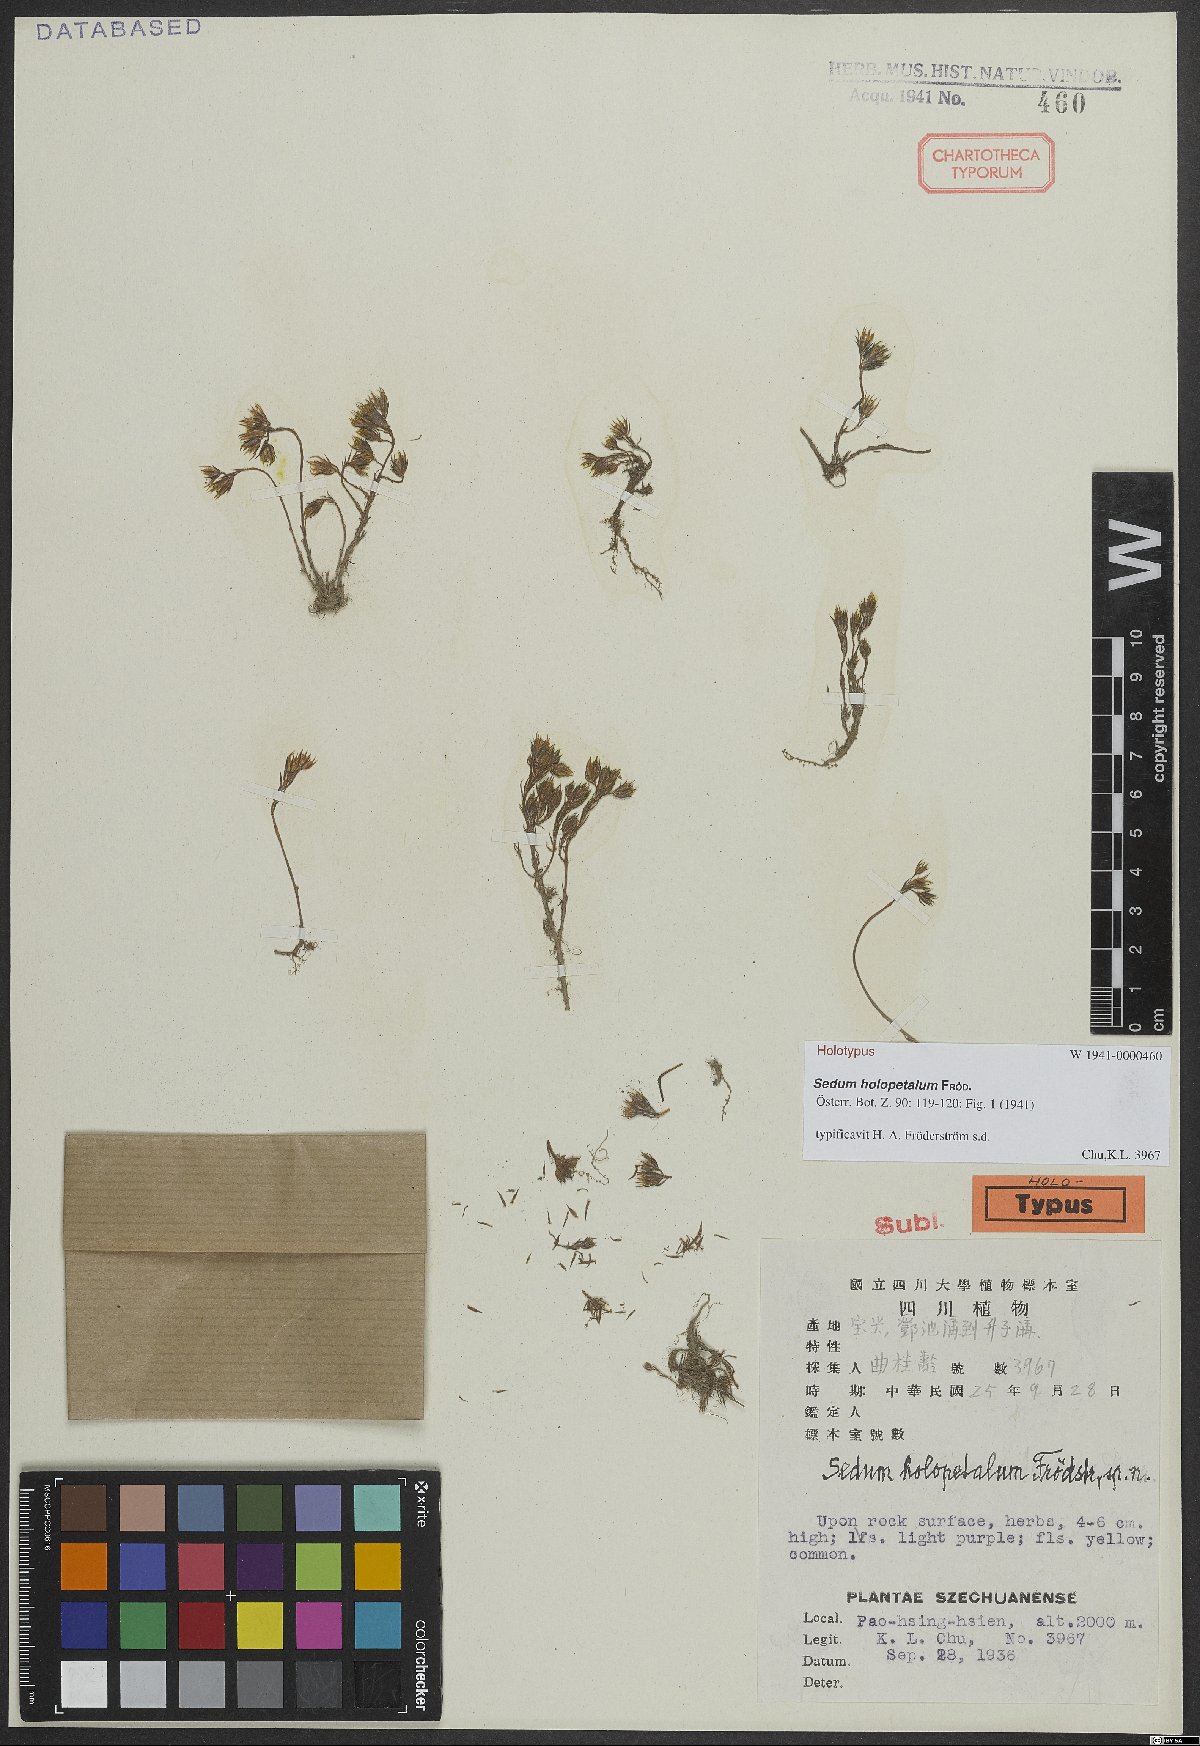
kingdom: Plantae
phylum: Tracheophyta
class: Magnoliopsida
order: Saxifragales
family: Crassulaceae
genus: Sedum
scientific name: Sedum holopetalum
